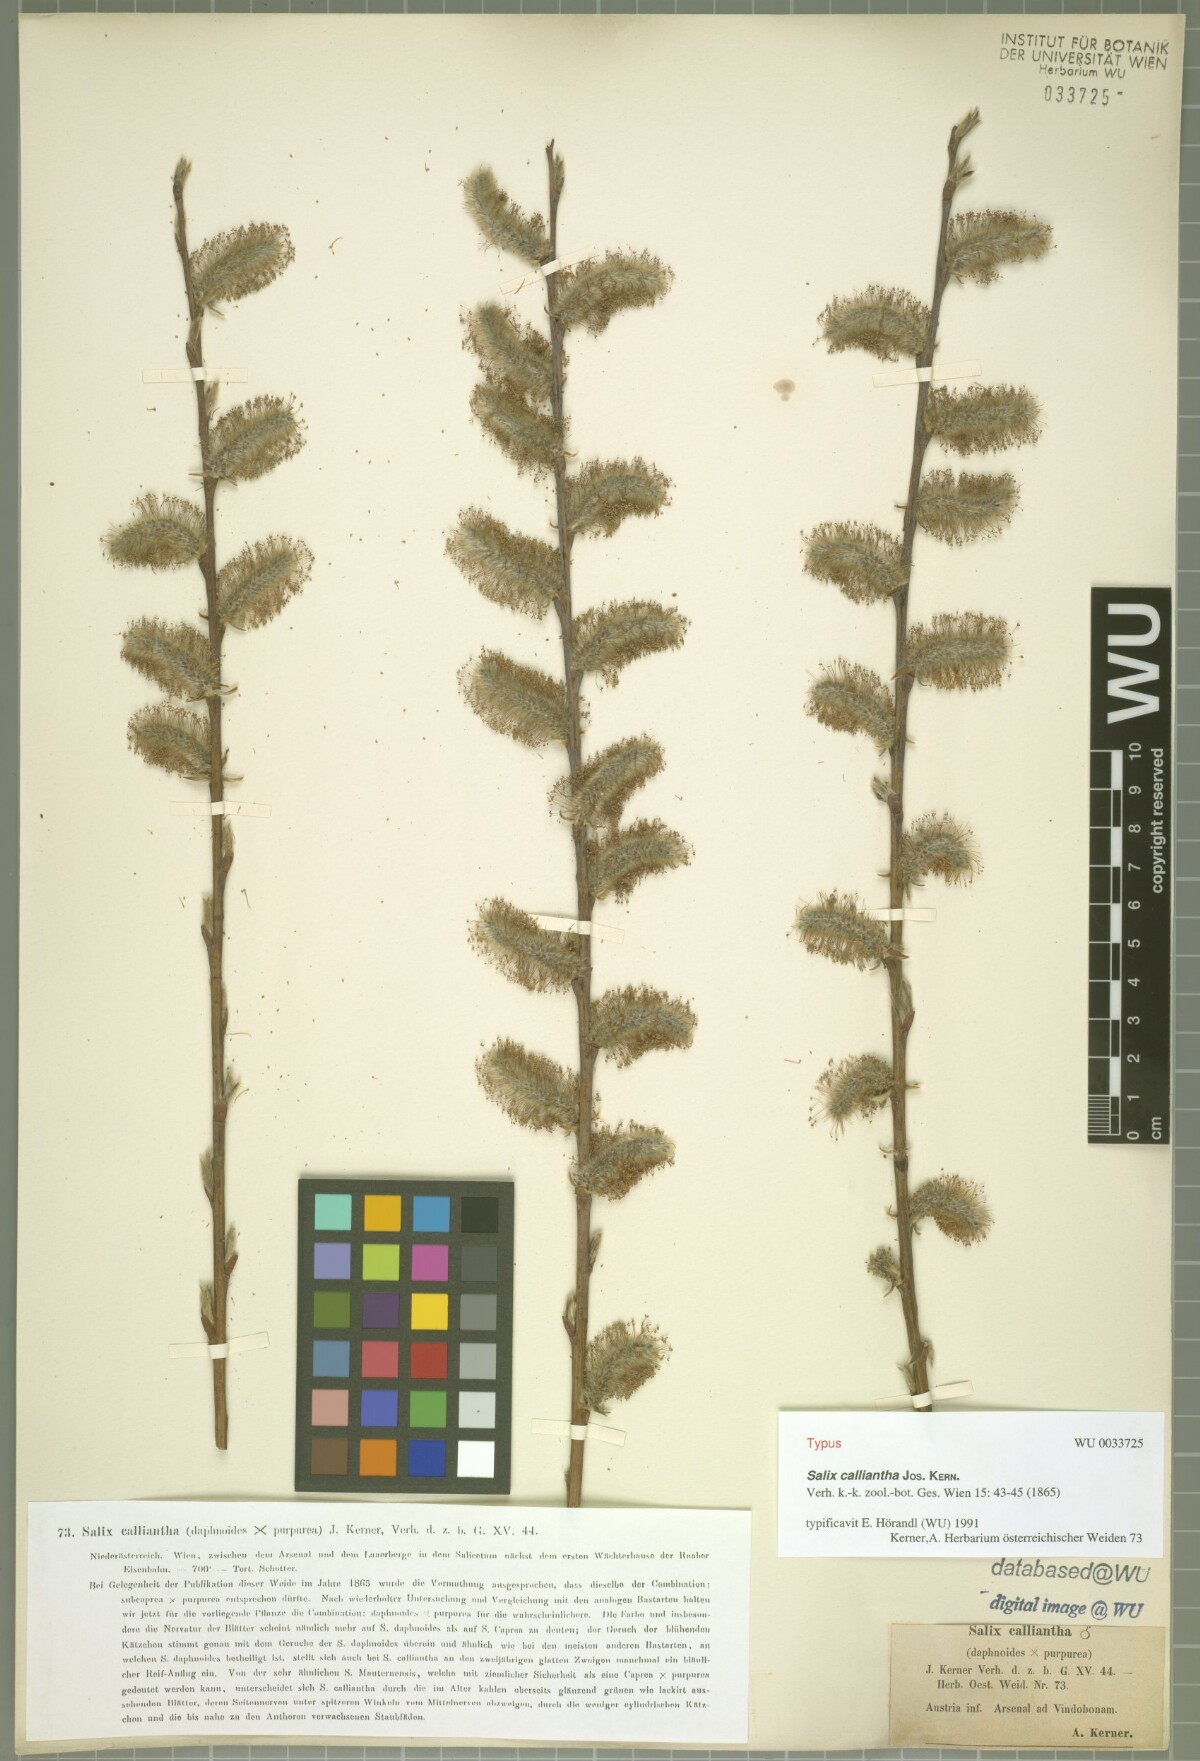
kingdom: Plantae
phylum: Tracheophyta
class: Magnoliopsida
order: Malpighiales
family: Salicaceae
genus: Salix
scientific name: Salix calliantha
